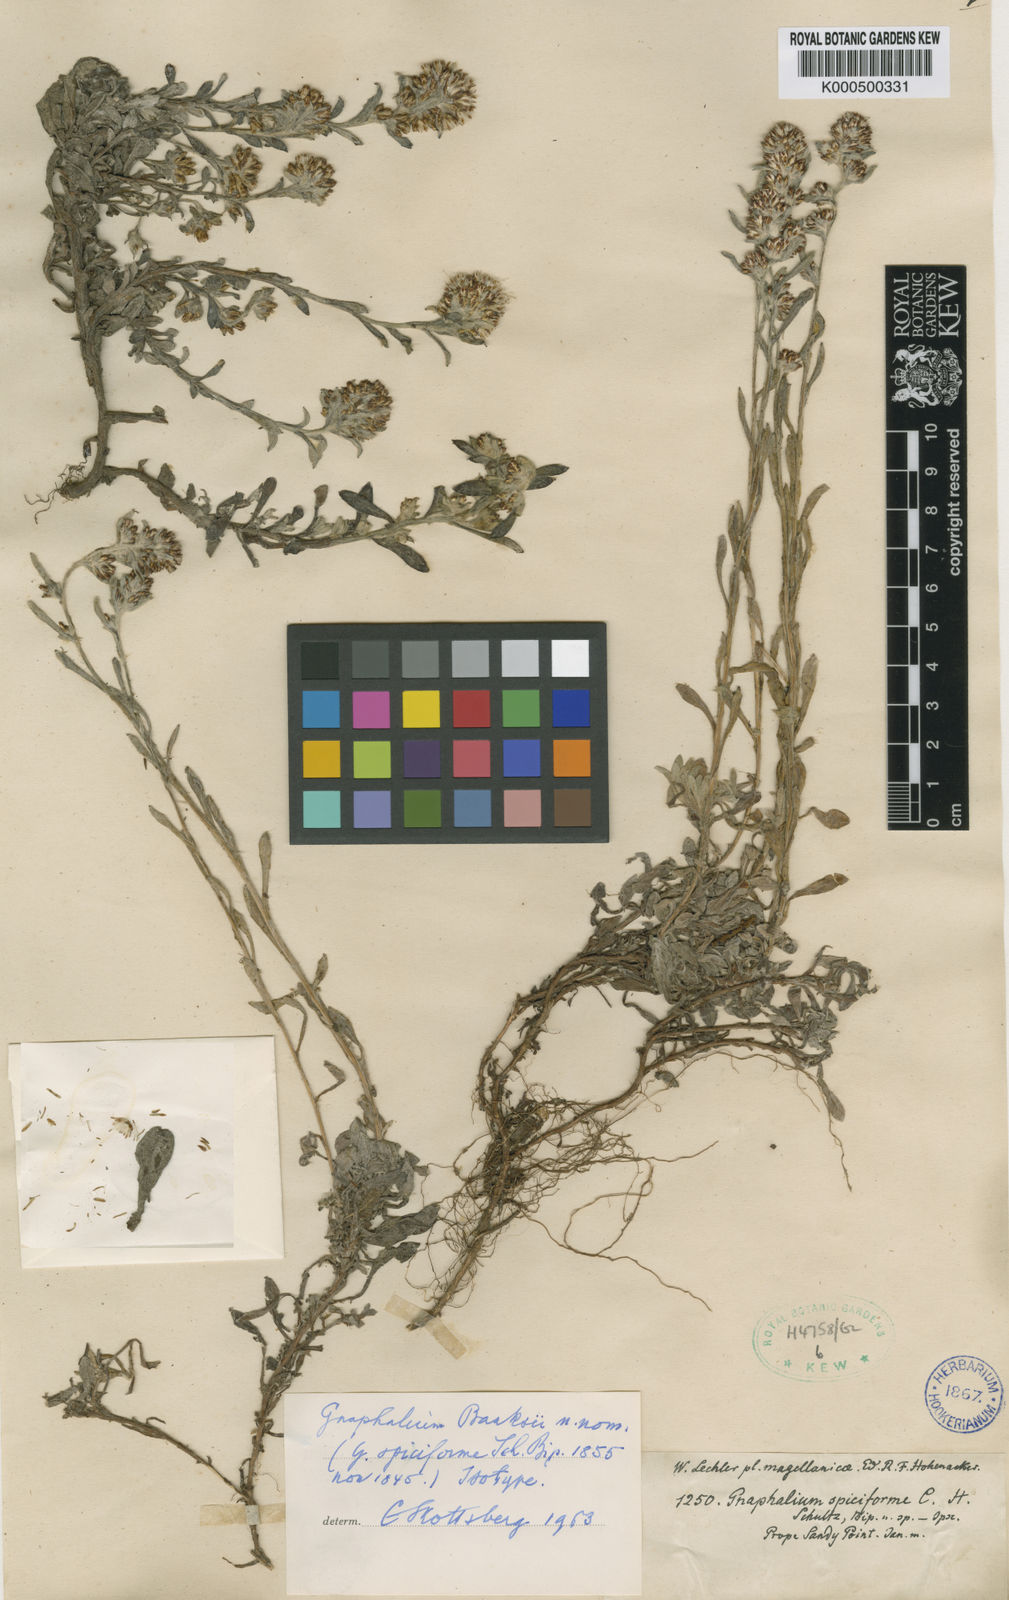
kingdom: Plantae
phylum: Tracheophyta
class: Magnoliopsida
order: Asterales
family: Asteraceae
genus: Xerochrysum
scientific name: Xerochrysum banksii
